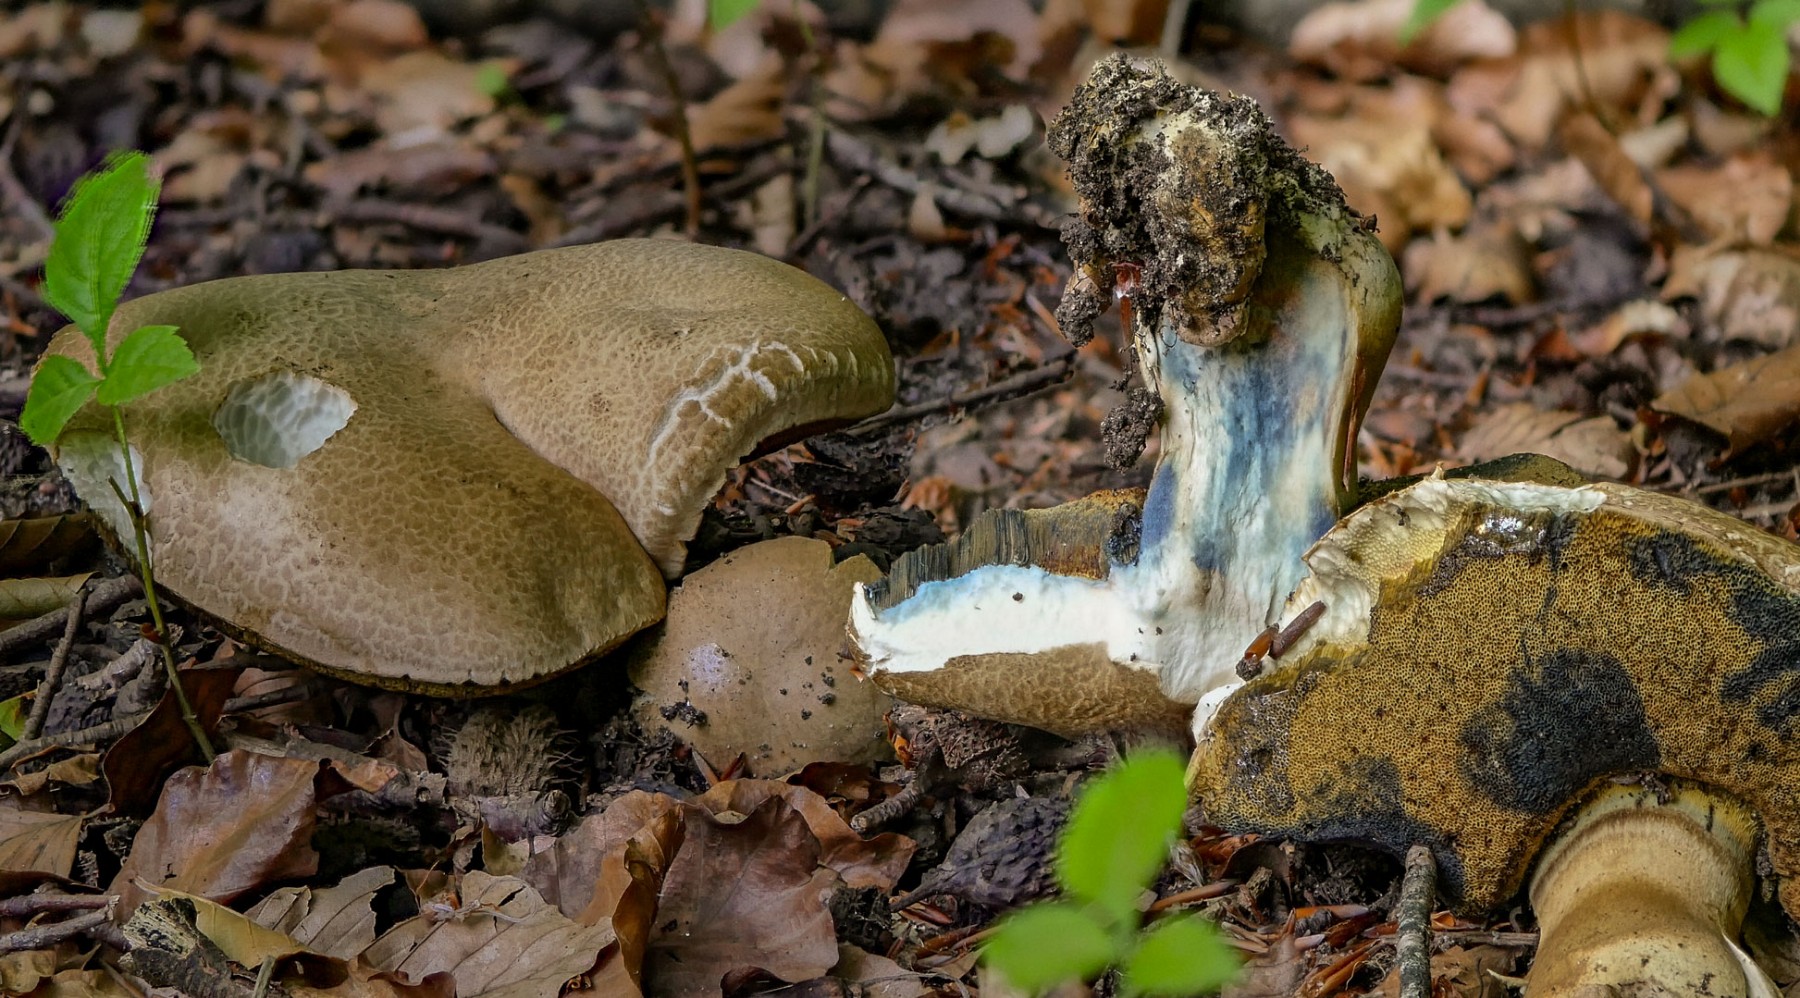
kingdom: Fungi
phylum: Basidiomycota
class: Agaricomycetes
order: Boletales
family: Boletaceae
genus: Caloboletus
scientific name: Caloboletus radicans
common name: rod-rørhat
